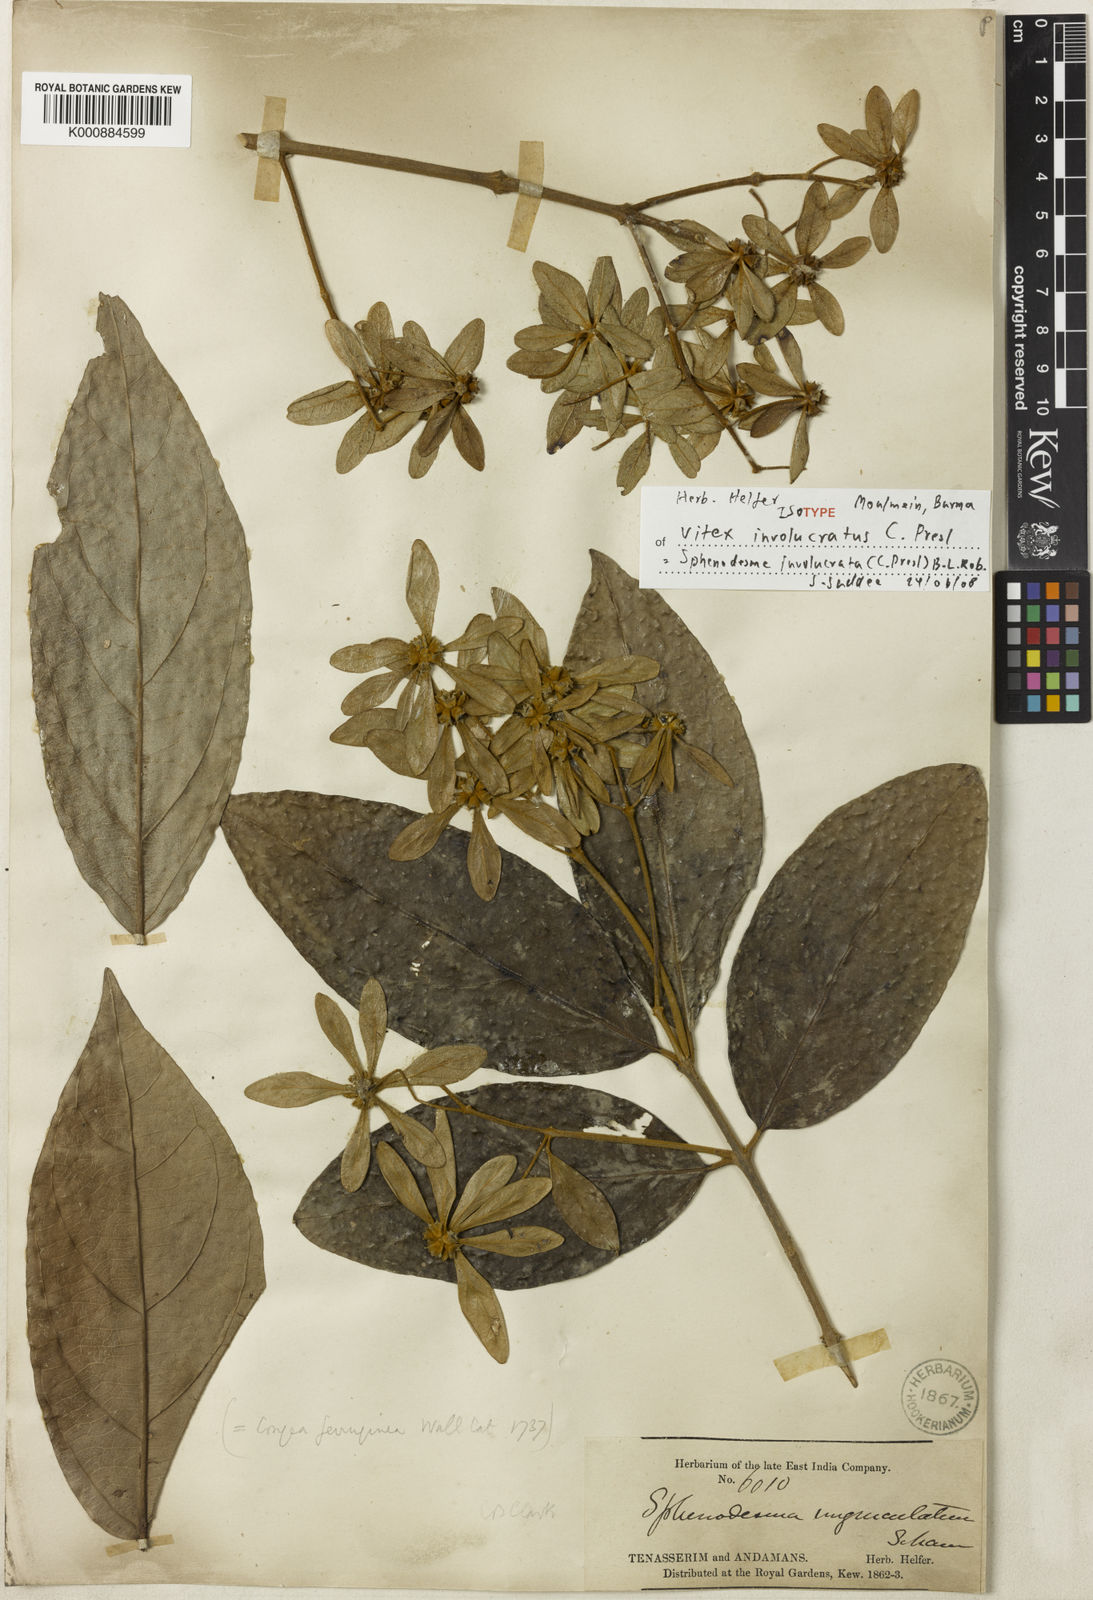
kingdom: Plantae
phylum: Tracheophyta
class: Magnoliopsida
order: Lamiales
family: Lamiaceae
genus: Sphenodesme
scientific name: Sphenodesme involucrata
